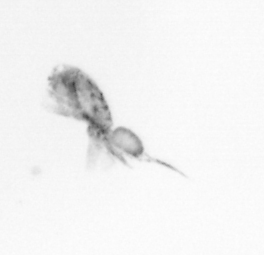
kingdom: Animalia
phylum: Arthropoda
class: Copepoda
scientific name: Copepoda
